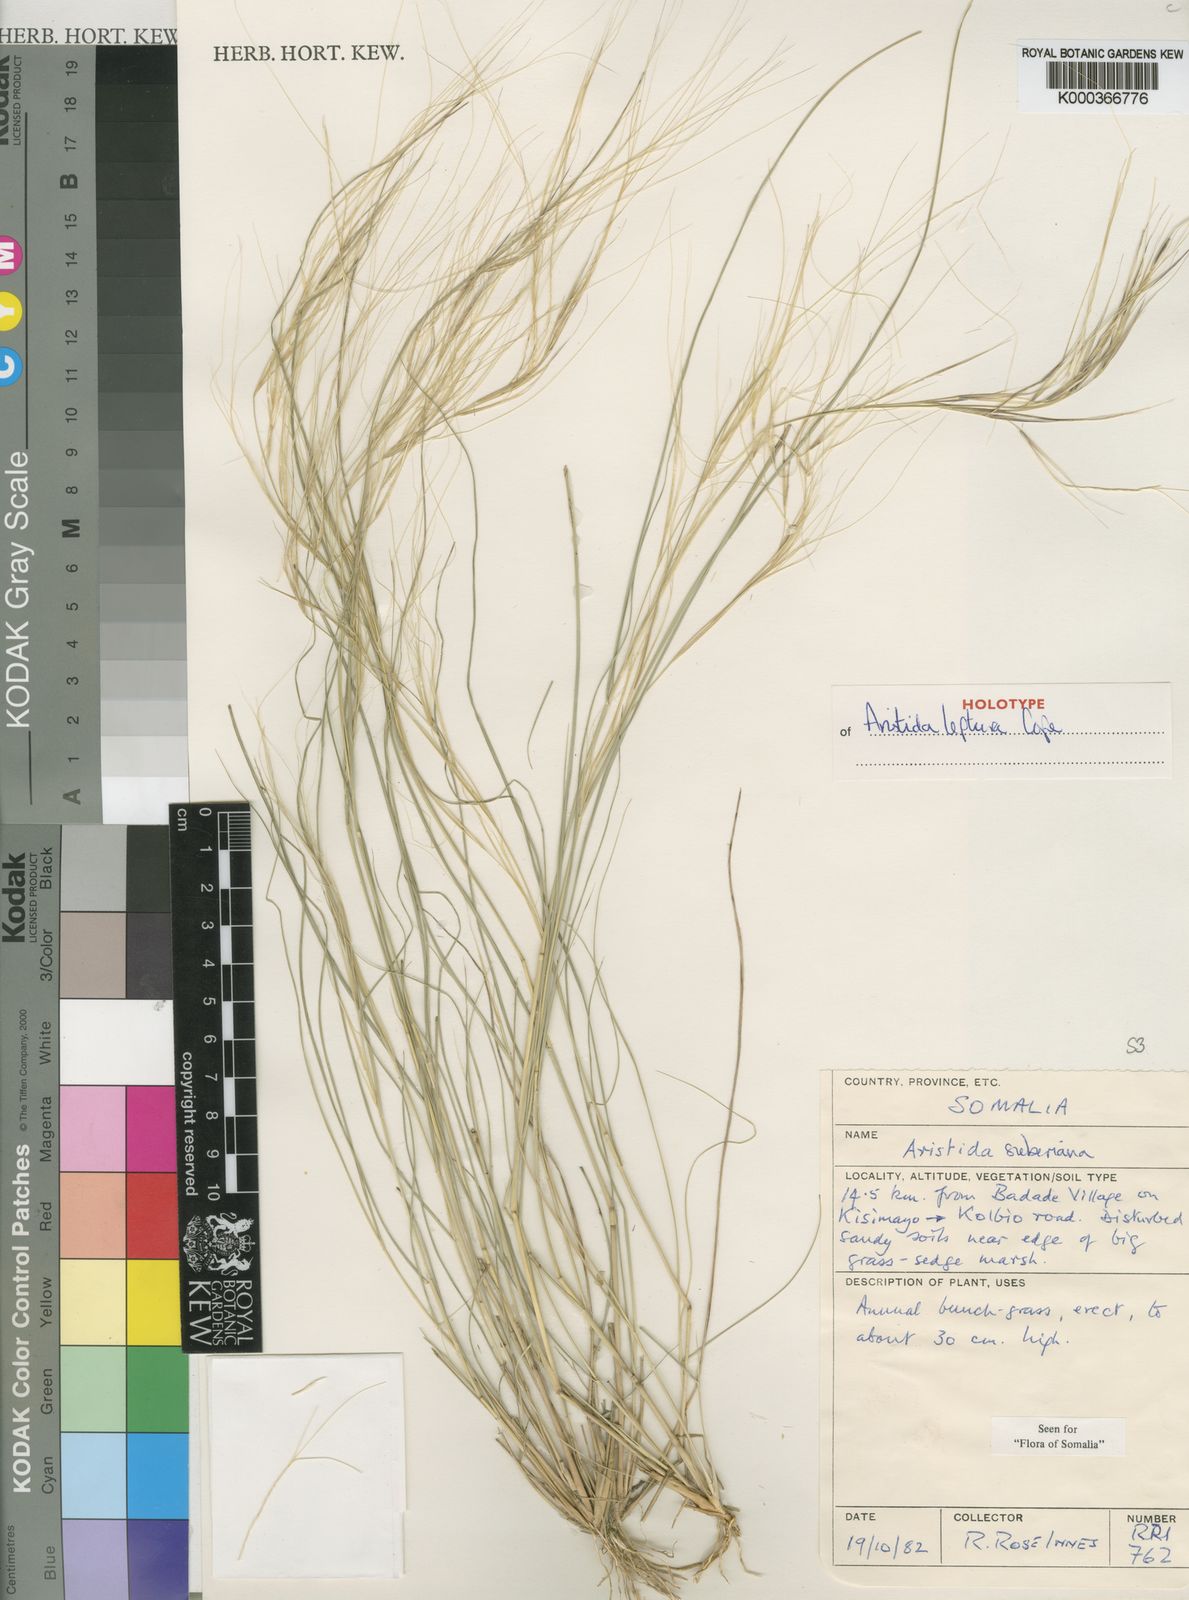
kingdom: Plantae
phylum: Tracheophyta
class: Liliopsida
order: Poales
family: Poaceae
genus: Aristida
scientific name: Aristida leptura
